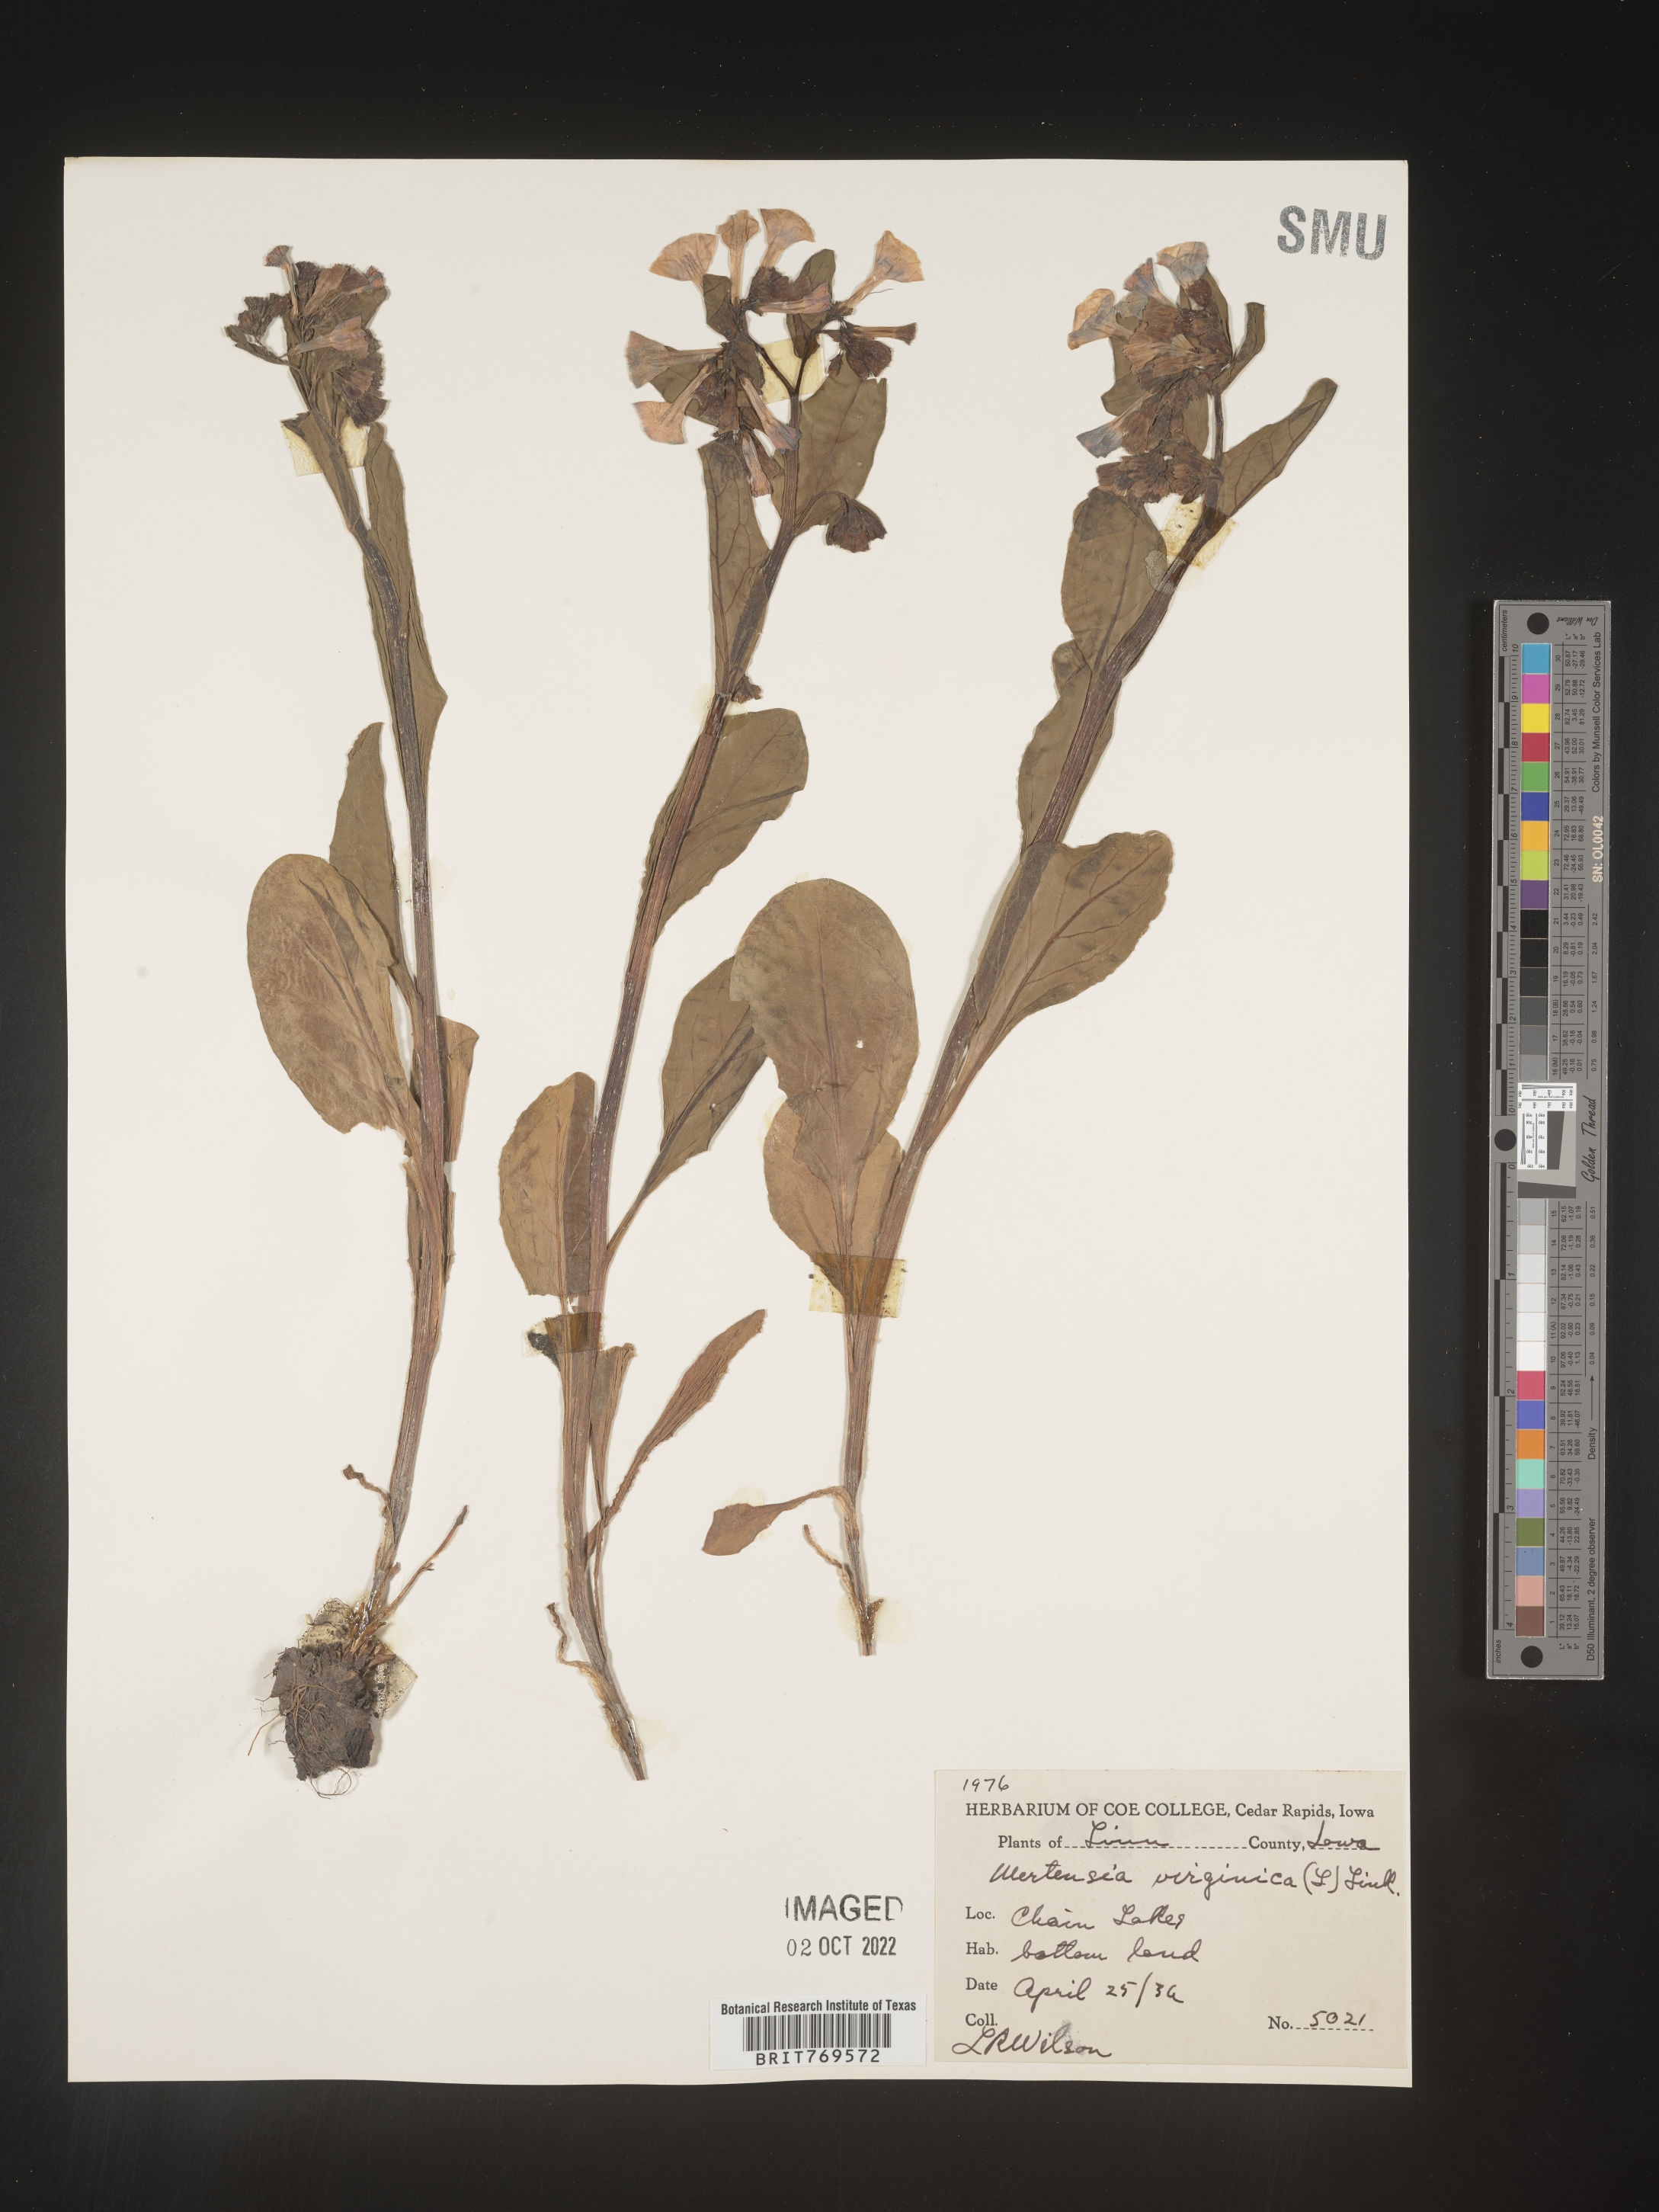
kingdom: Plantae
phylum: Tracheophyta
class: Magnoliopsida
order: Boraginales
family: Boraginaceae
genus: Mertensia
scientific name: Mertensia virginica
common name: Virginia bluebells
